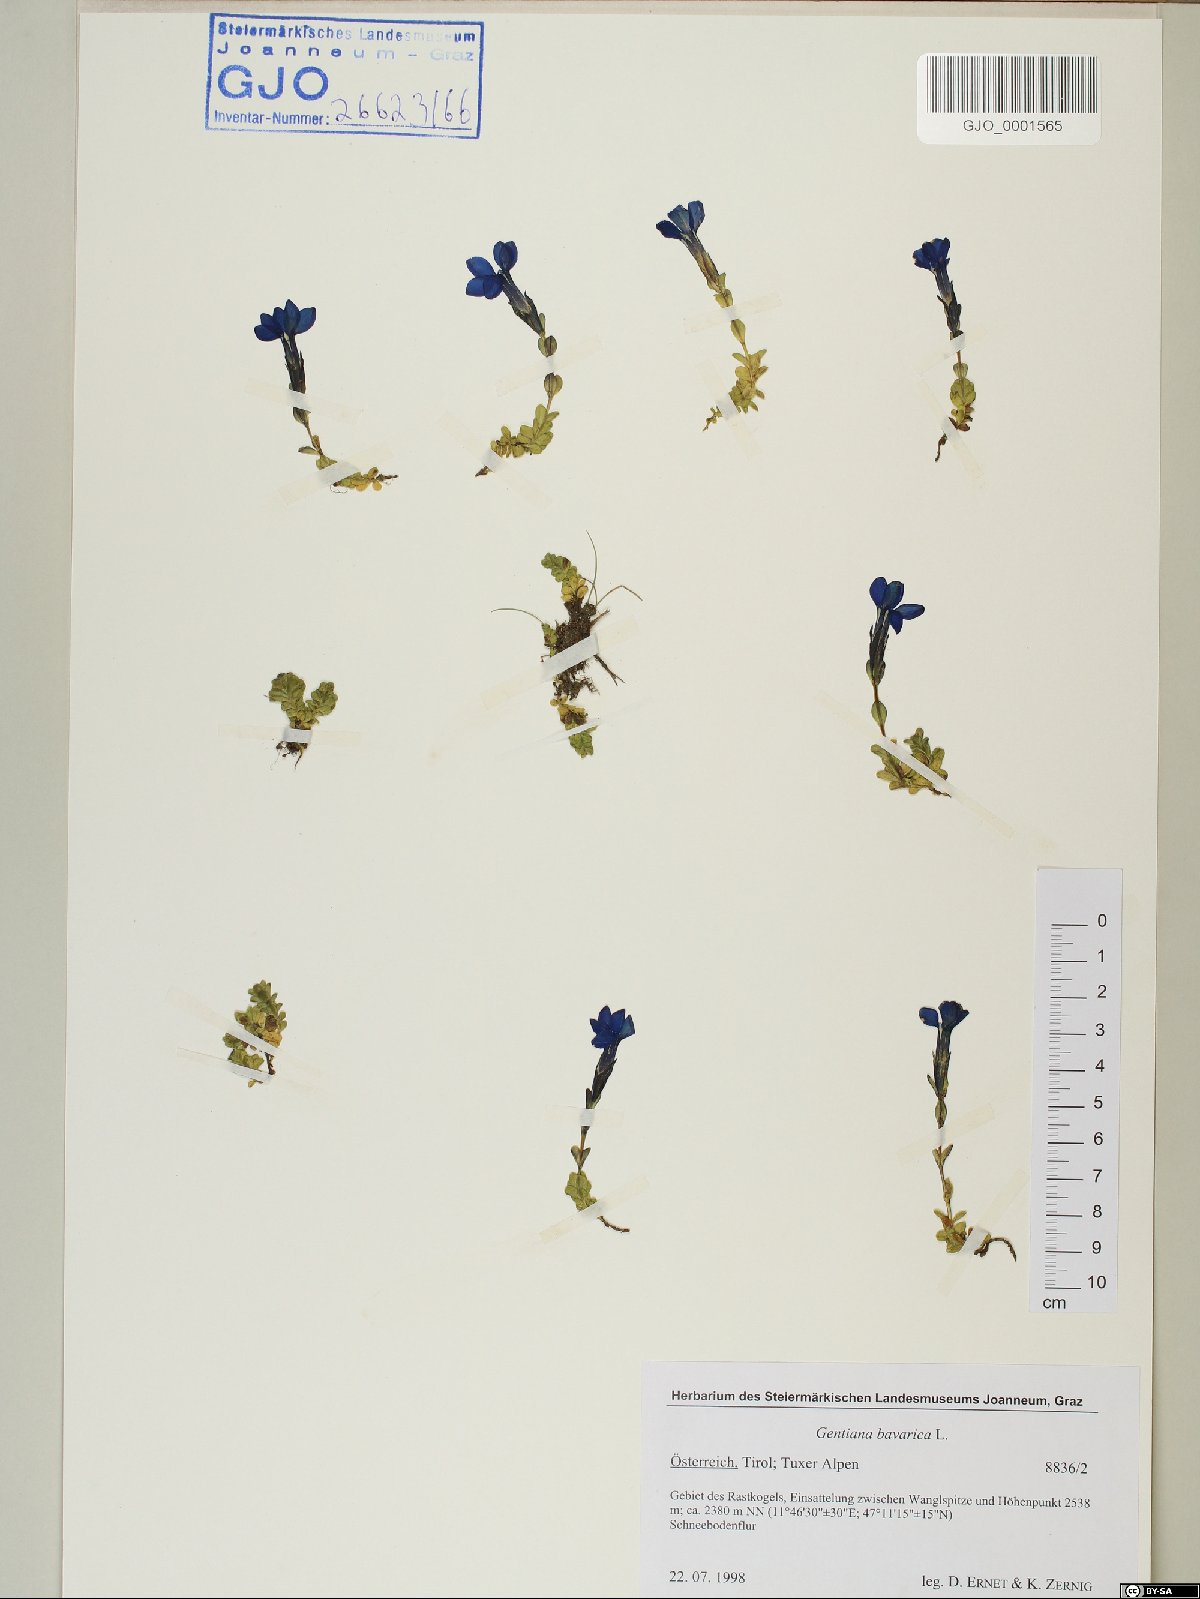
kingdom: Plantae
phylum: Tracheophyta
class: Magnoliopsida
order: Gentianales
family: Gentianaceae
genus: Gentiana
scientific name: Gentiana bavarica
